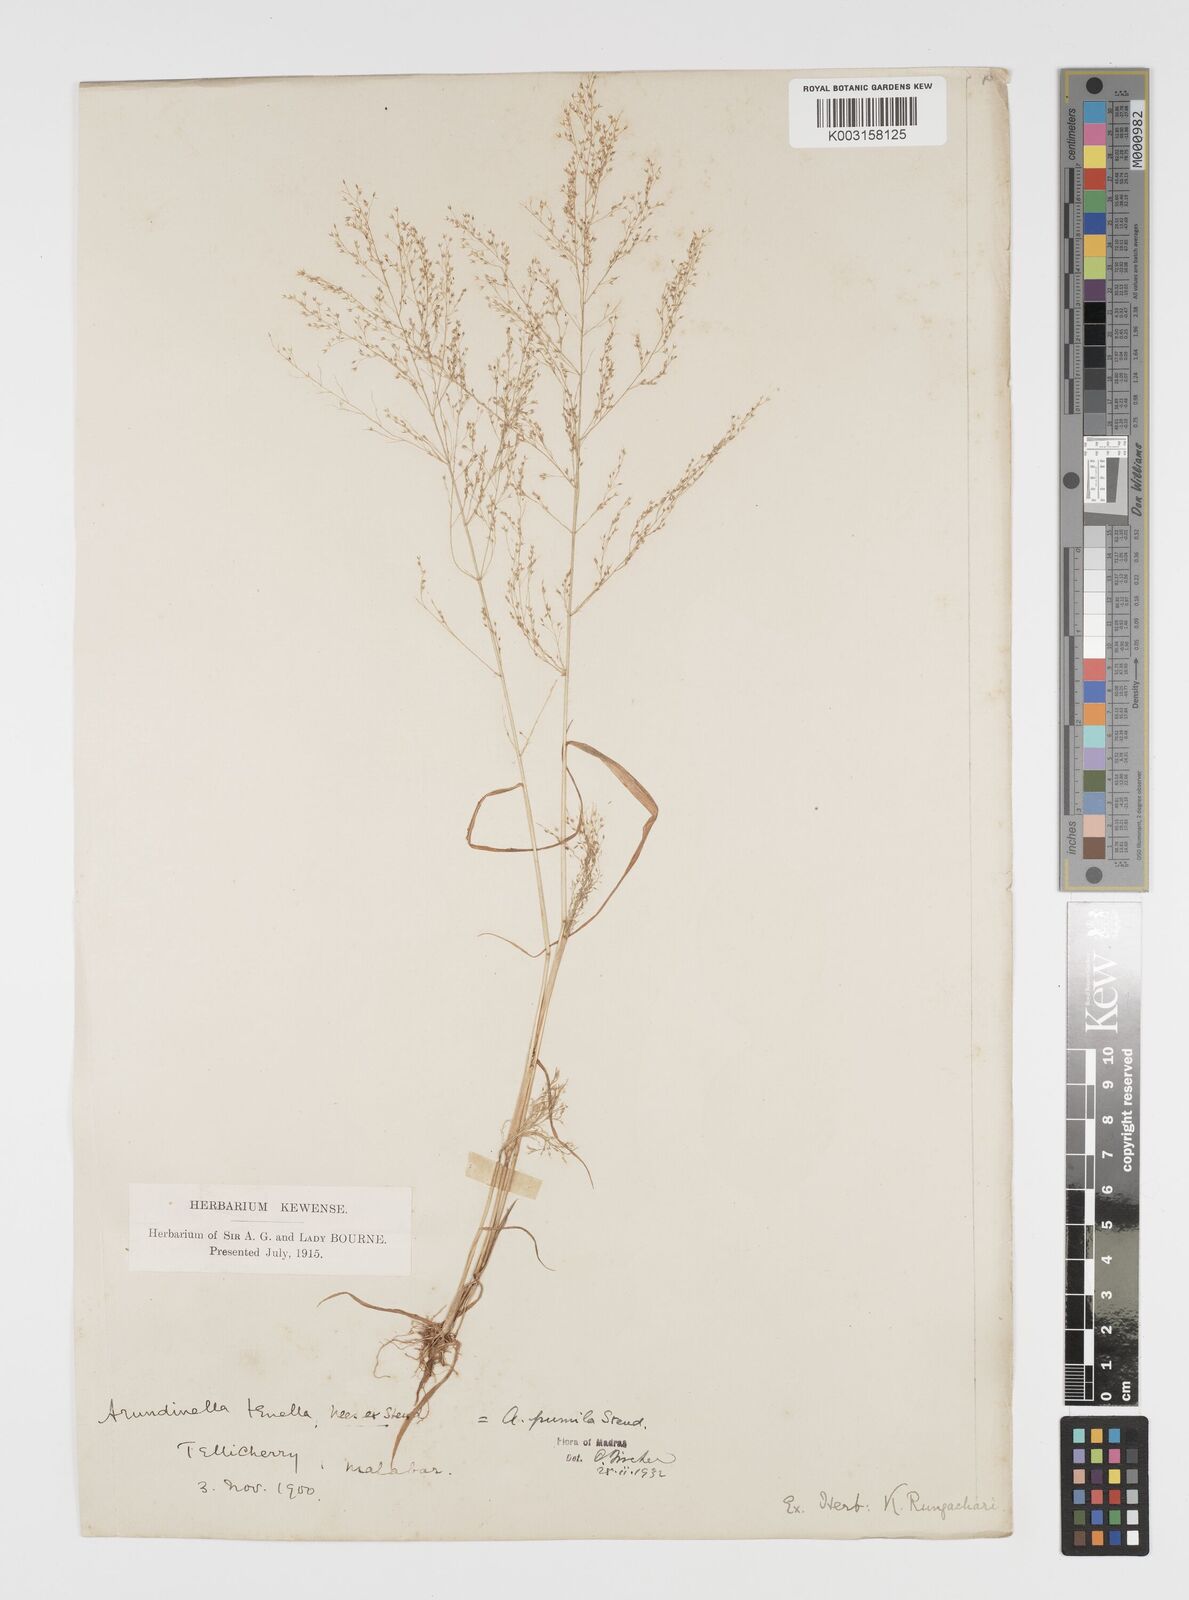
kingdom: Plantae
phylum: Tracheophyta
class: Liliopsida
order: Poales
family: Poaceae
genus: Arundinella
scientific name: Arundinella pumila
